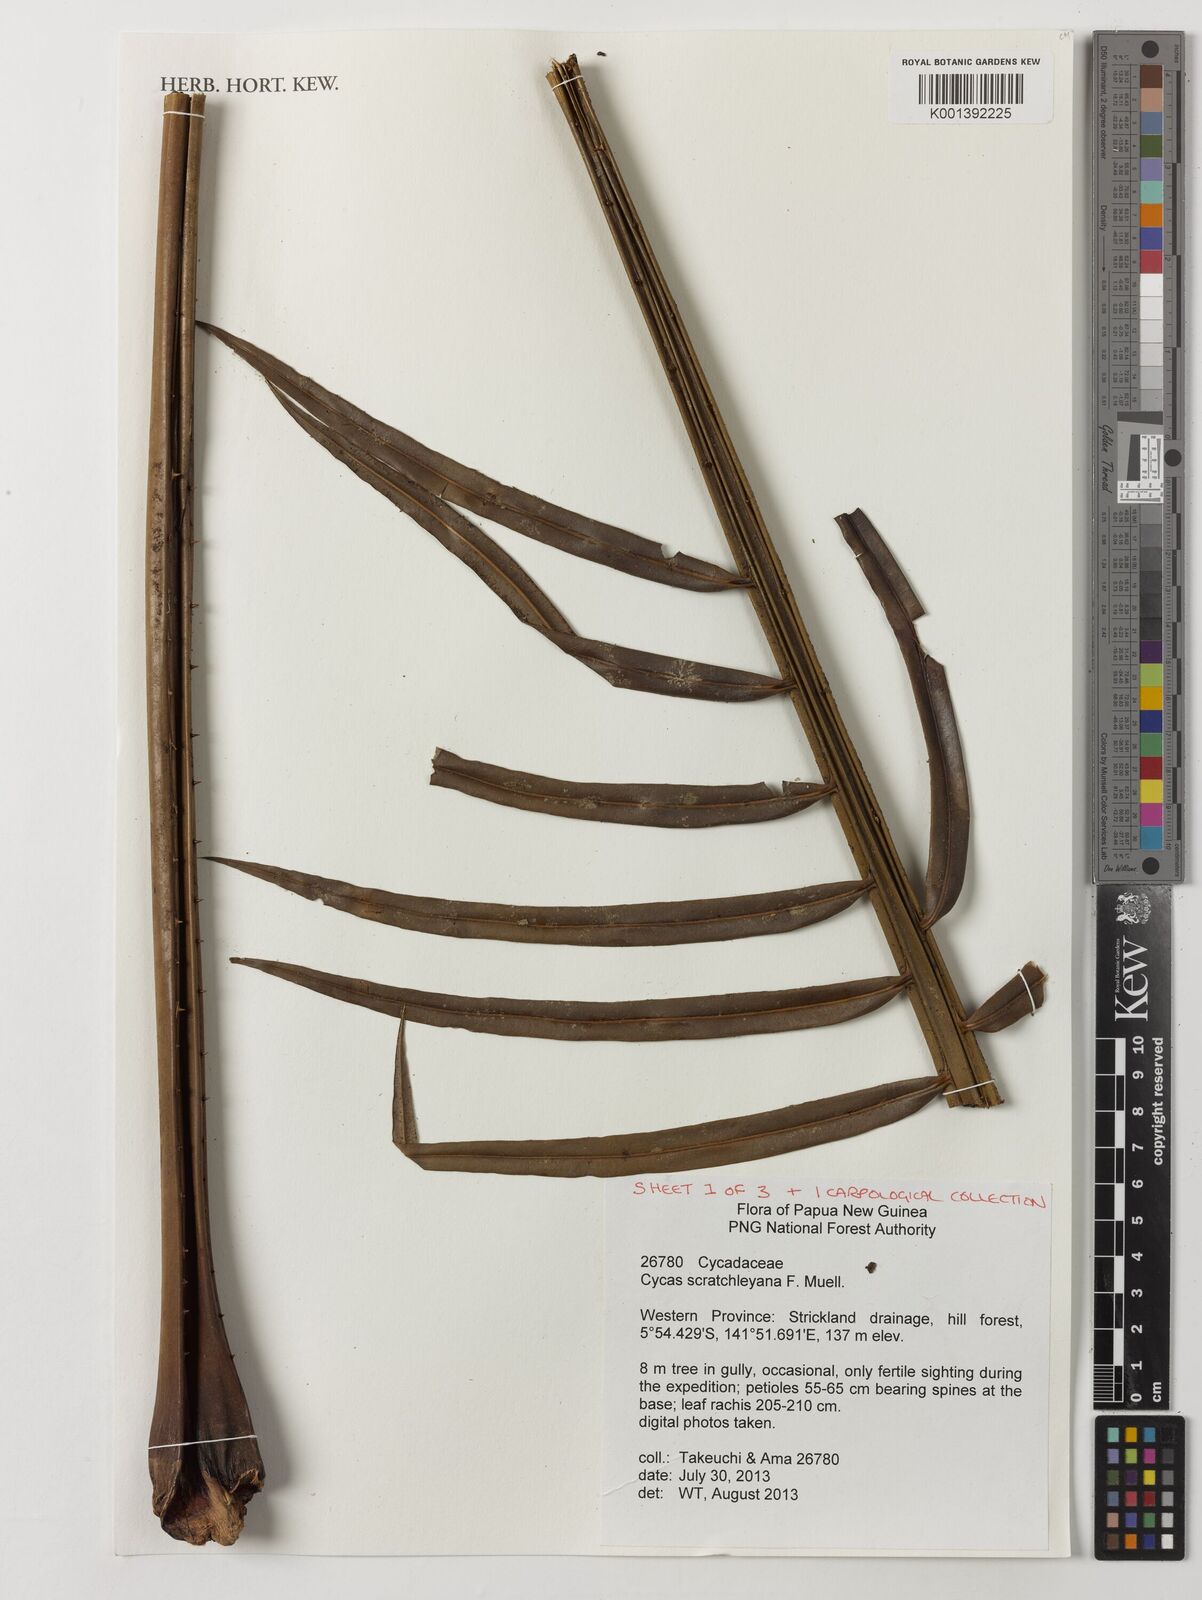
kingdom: Plantae
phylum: Tracheophyta
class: Cycadopsida
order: Cycadales
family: Cycadaceae
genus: Cycas
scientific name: Cycas scratchleyana
